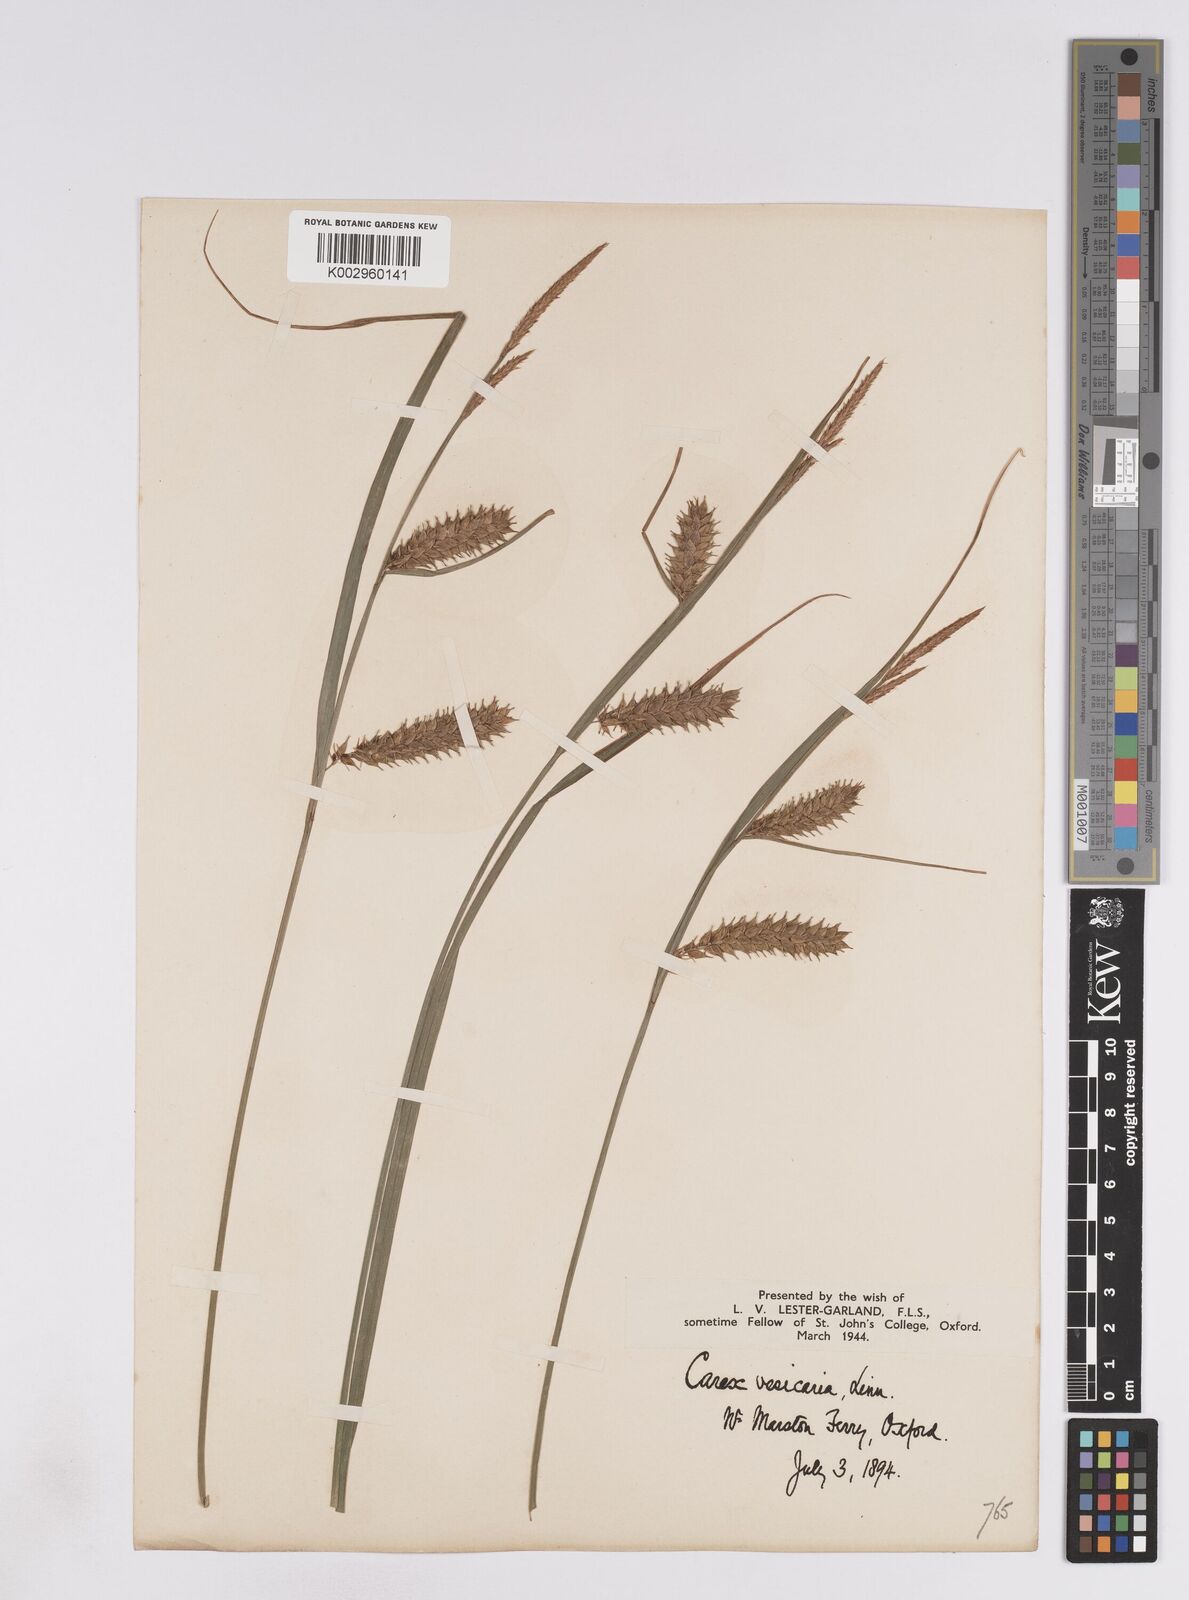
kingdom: Plantae
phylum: Tracheophyta
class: Liliopsida
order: Poales
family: Cyperaceae
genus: Carex
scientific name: Carex vesicaria
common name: Bladder-sedge
